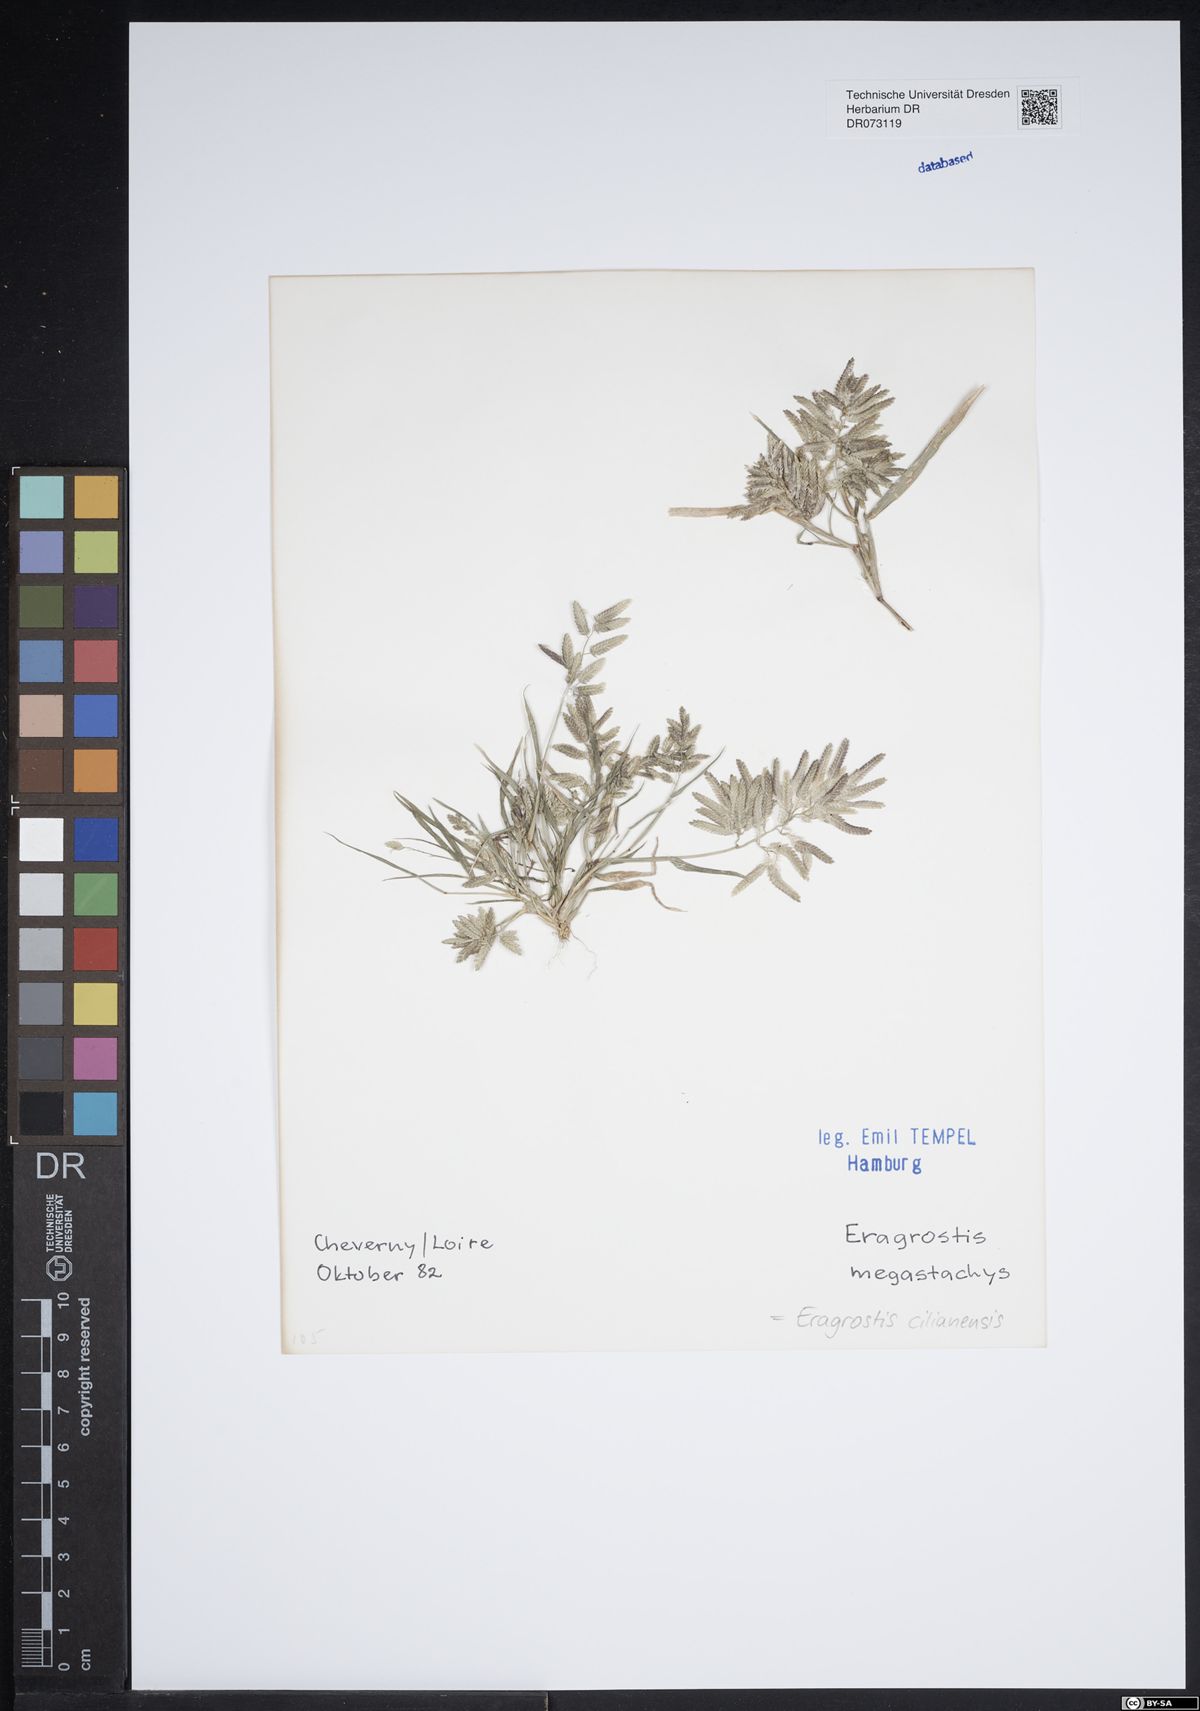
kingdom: Plantae
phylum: Tracheophyta
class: Liliopsida
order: Poales
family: Poaceae
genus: Eragrostis
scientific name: Eragrostis cilianensis
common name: Stinkgrass
